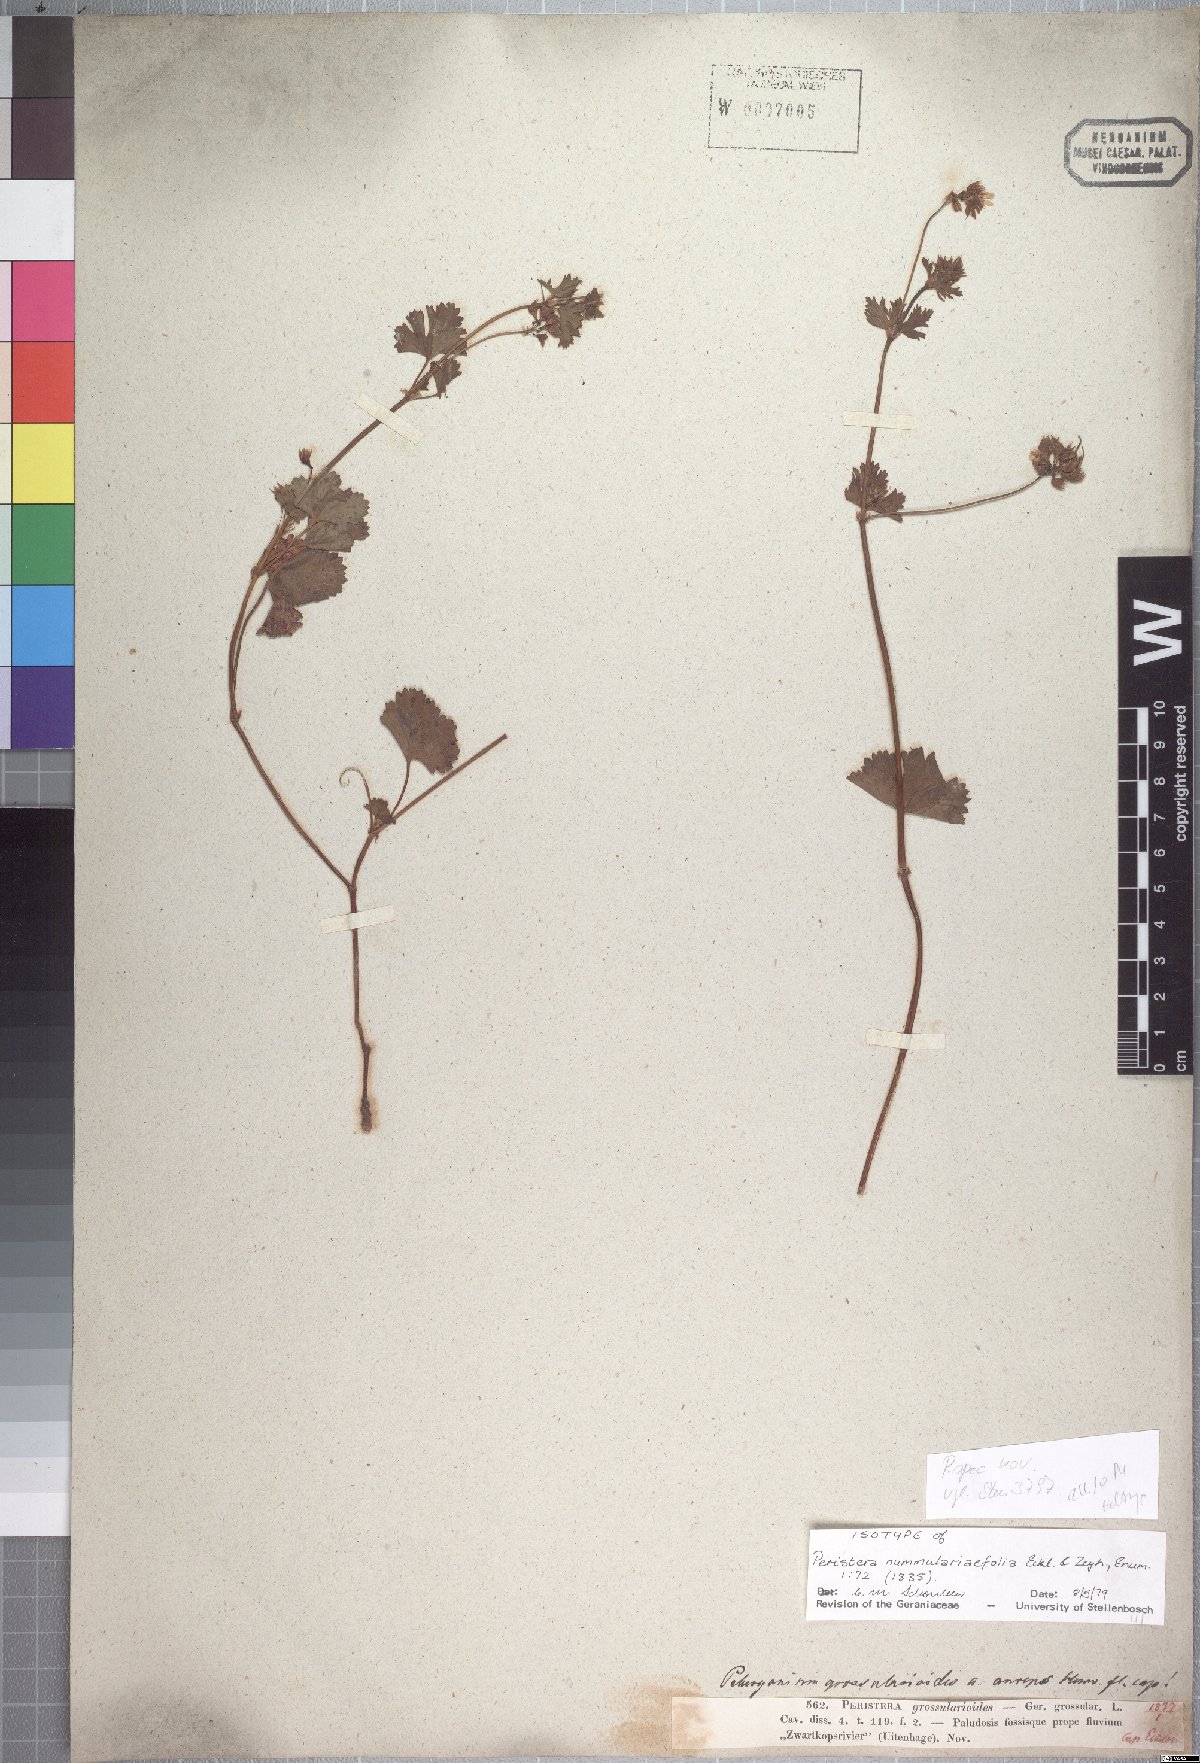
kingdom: Plantae
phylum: Tracheophyta
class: Magnoliopsida
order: Geraniales
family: Geraniaceae
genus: Pelargonium
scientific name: Pelargonium australe
